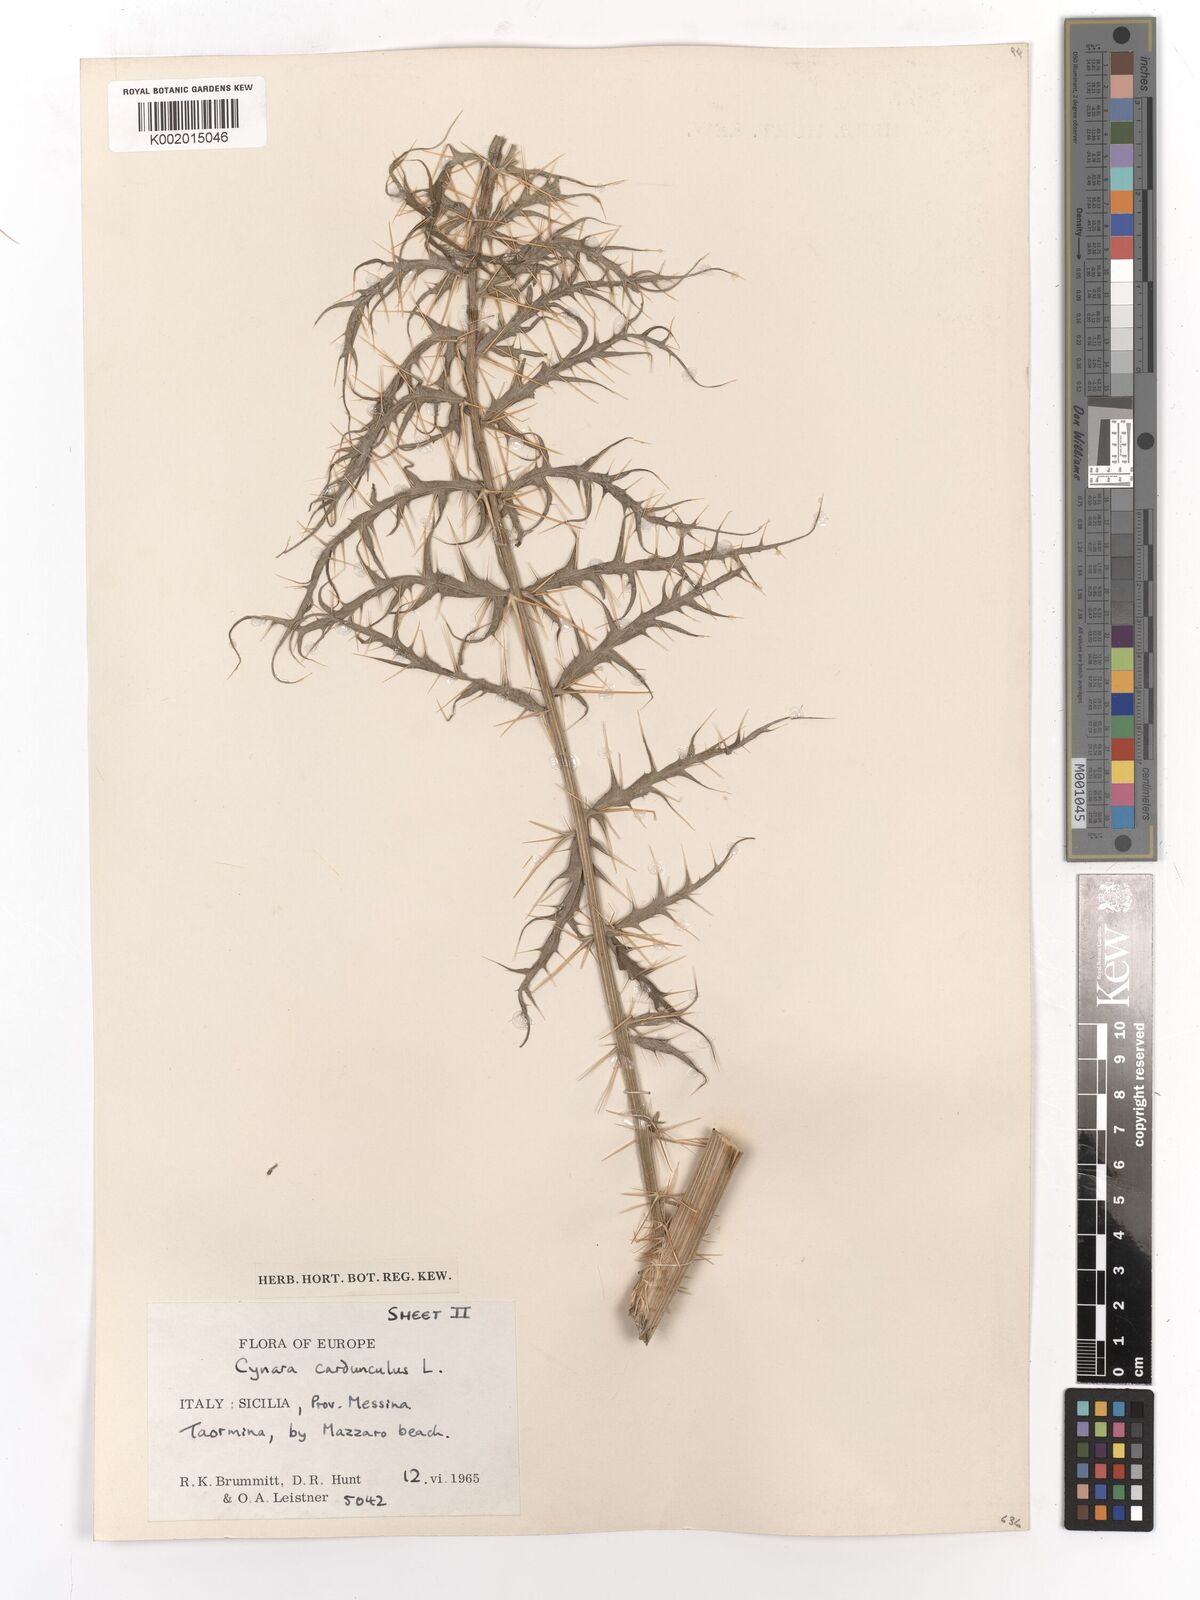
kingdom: Plantae
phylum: Tracheophyta
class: Magnoliopsida
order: Asterales
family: Asteraceae
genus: Cynara
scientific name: Cynara cardunculus
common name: Globe artichoke
